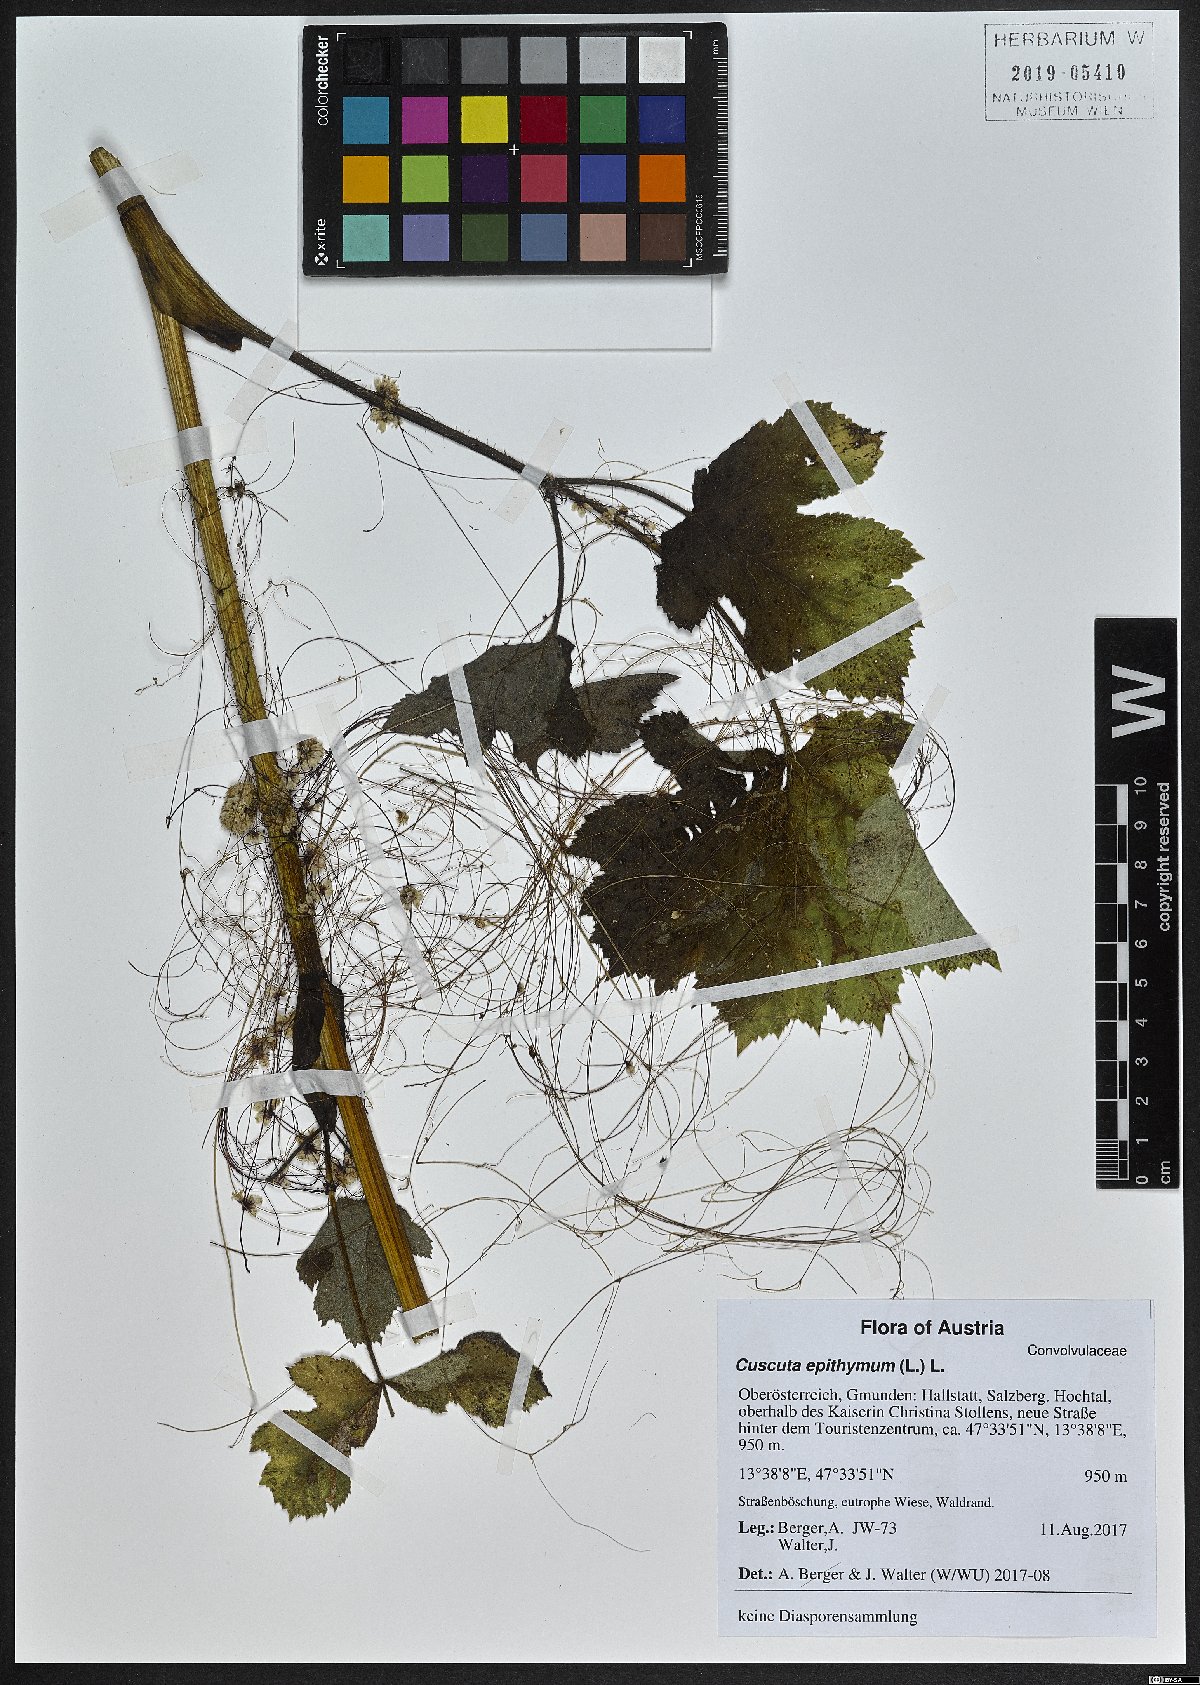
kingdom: Plantae
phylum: Tracheophyta
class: Magnoliopsida
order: Solanales
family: Convolvulaceae
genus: Cuscuta
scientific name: Cuscuta epithymum
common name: Clover dodder
